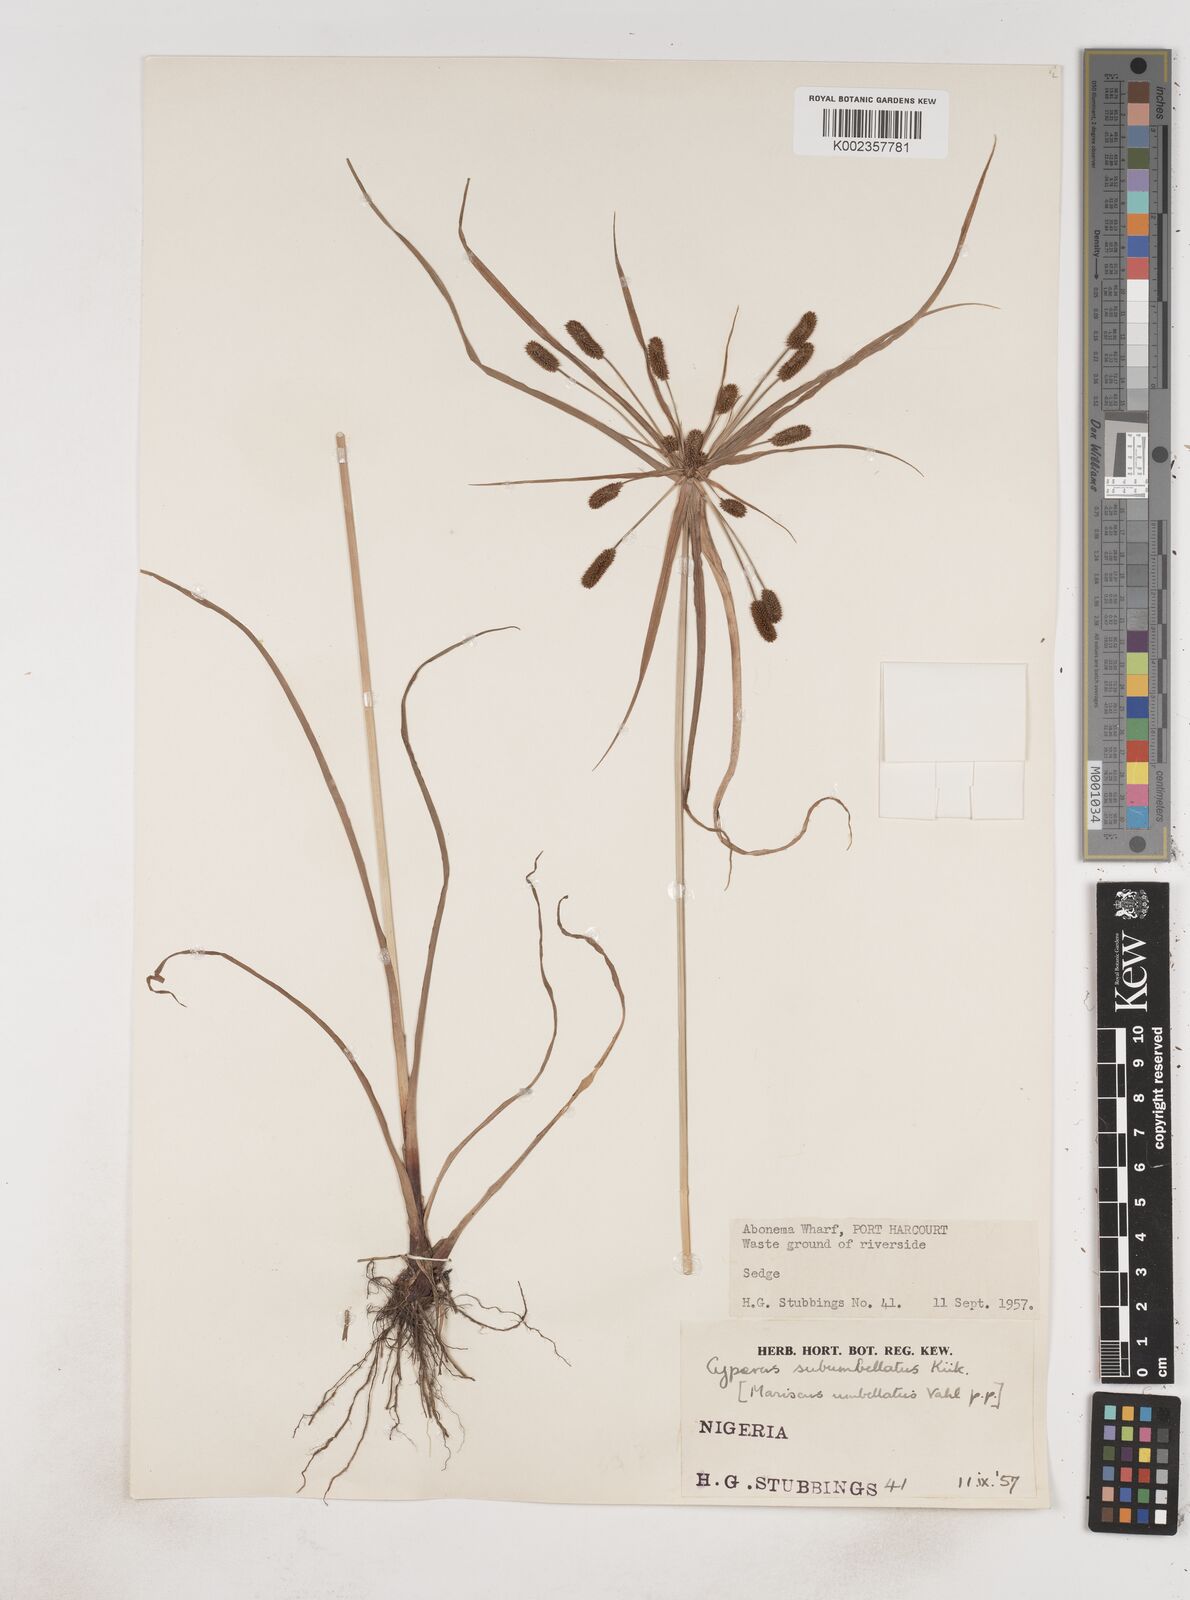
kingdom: Plantae
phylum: Tracheophyta
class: Liliopsida
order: Poales
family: Cyperaceae
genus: Cyperus
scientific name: Cyperus sublimis
